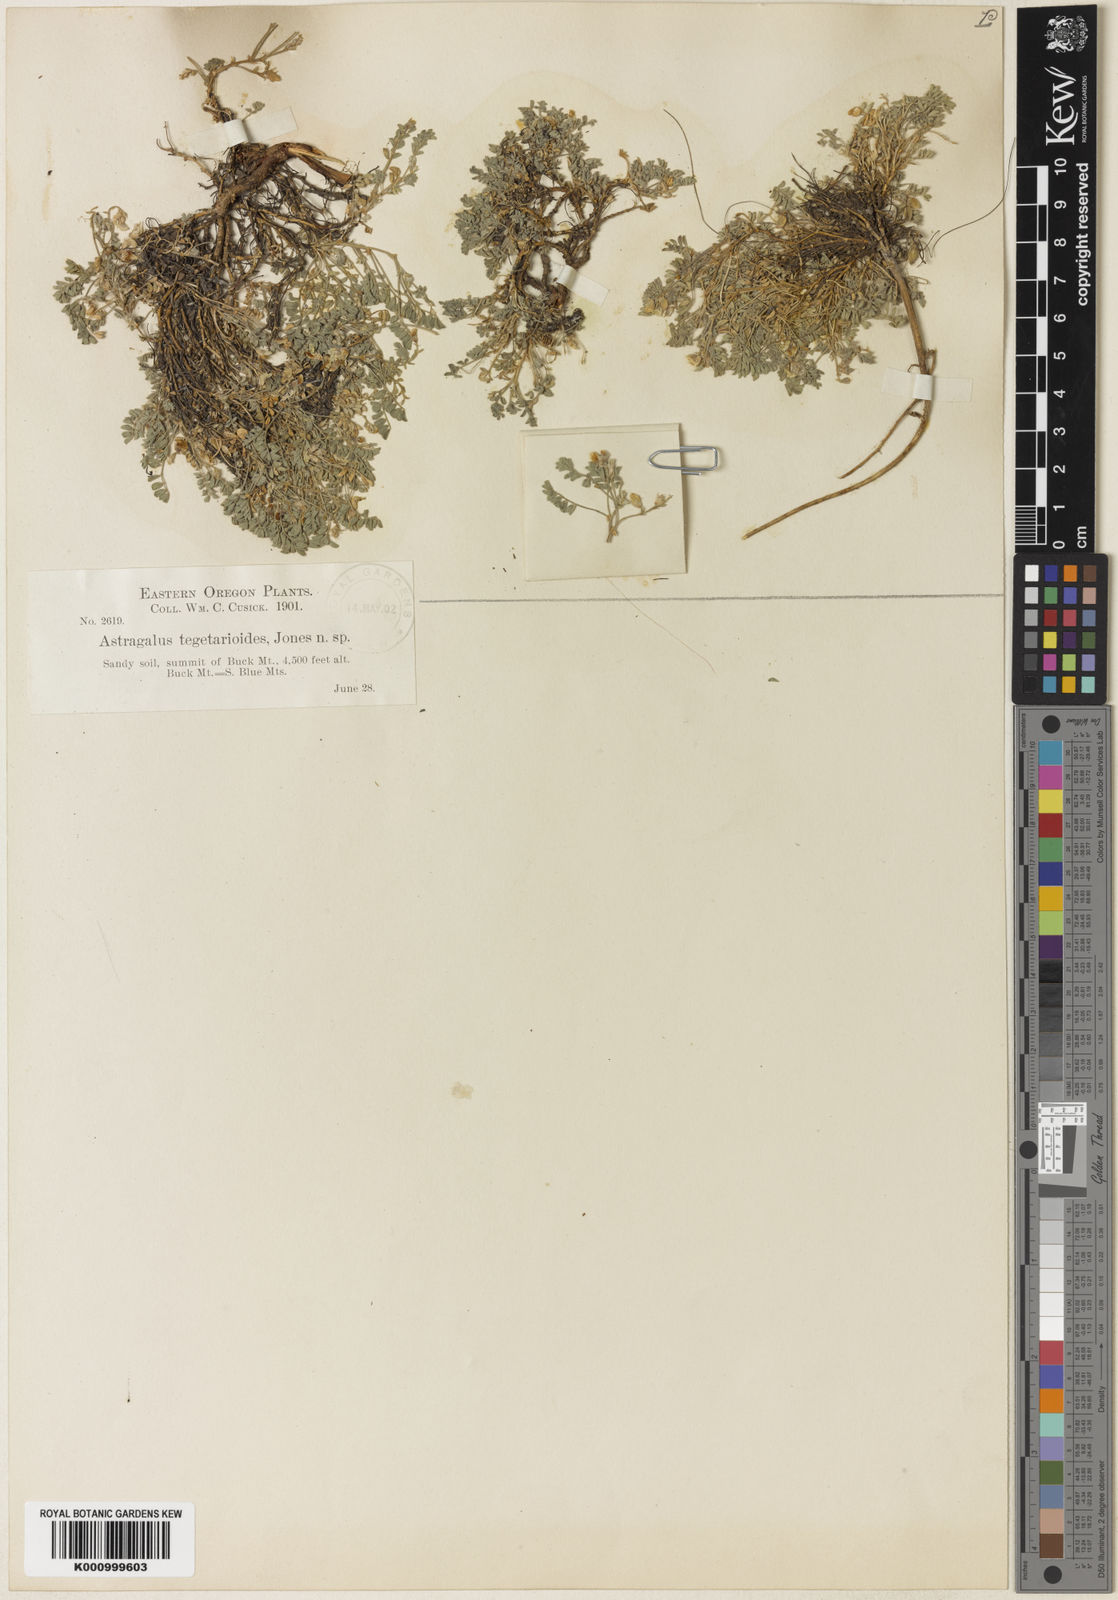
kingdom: Plantae
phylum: Tracheophyta
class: Magnoliopsida
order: Fabales
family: Fabaceae
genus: Astragalus
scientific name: Astragalus tegetarioides
